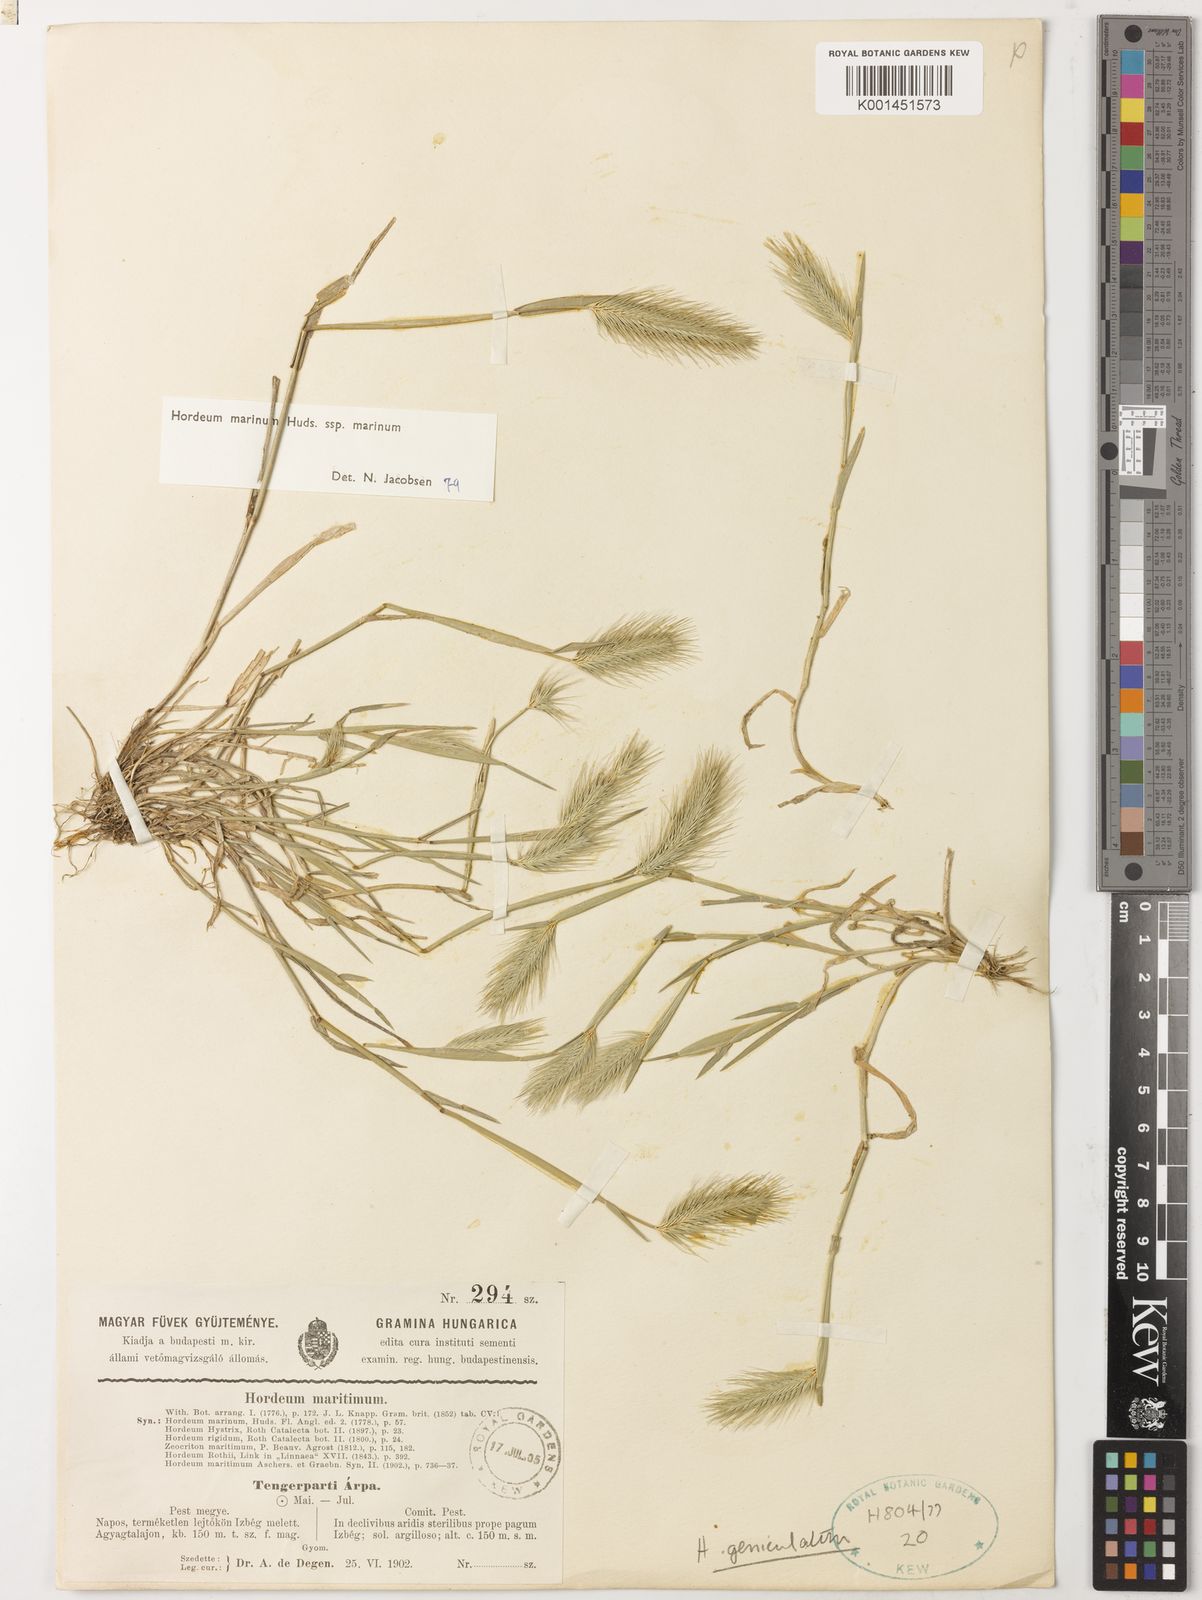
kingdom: Plantae
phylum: Tracheophyta
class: Liliopsida
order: Poales
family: Poaceae
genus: Hordeum
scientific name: Hordeum marinum
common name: Sea barley
